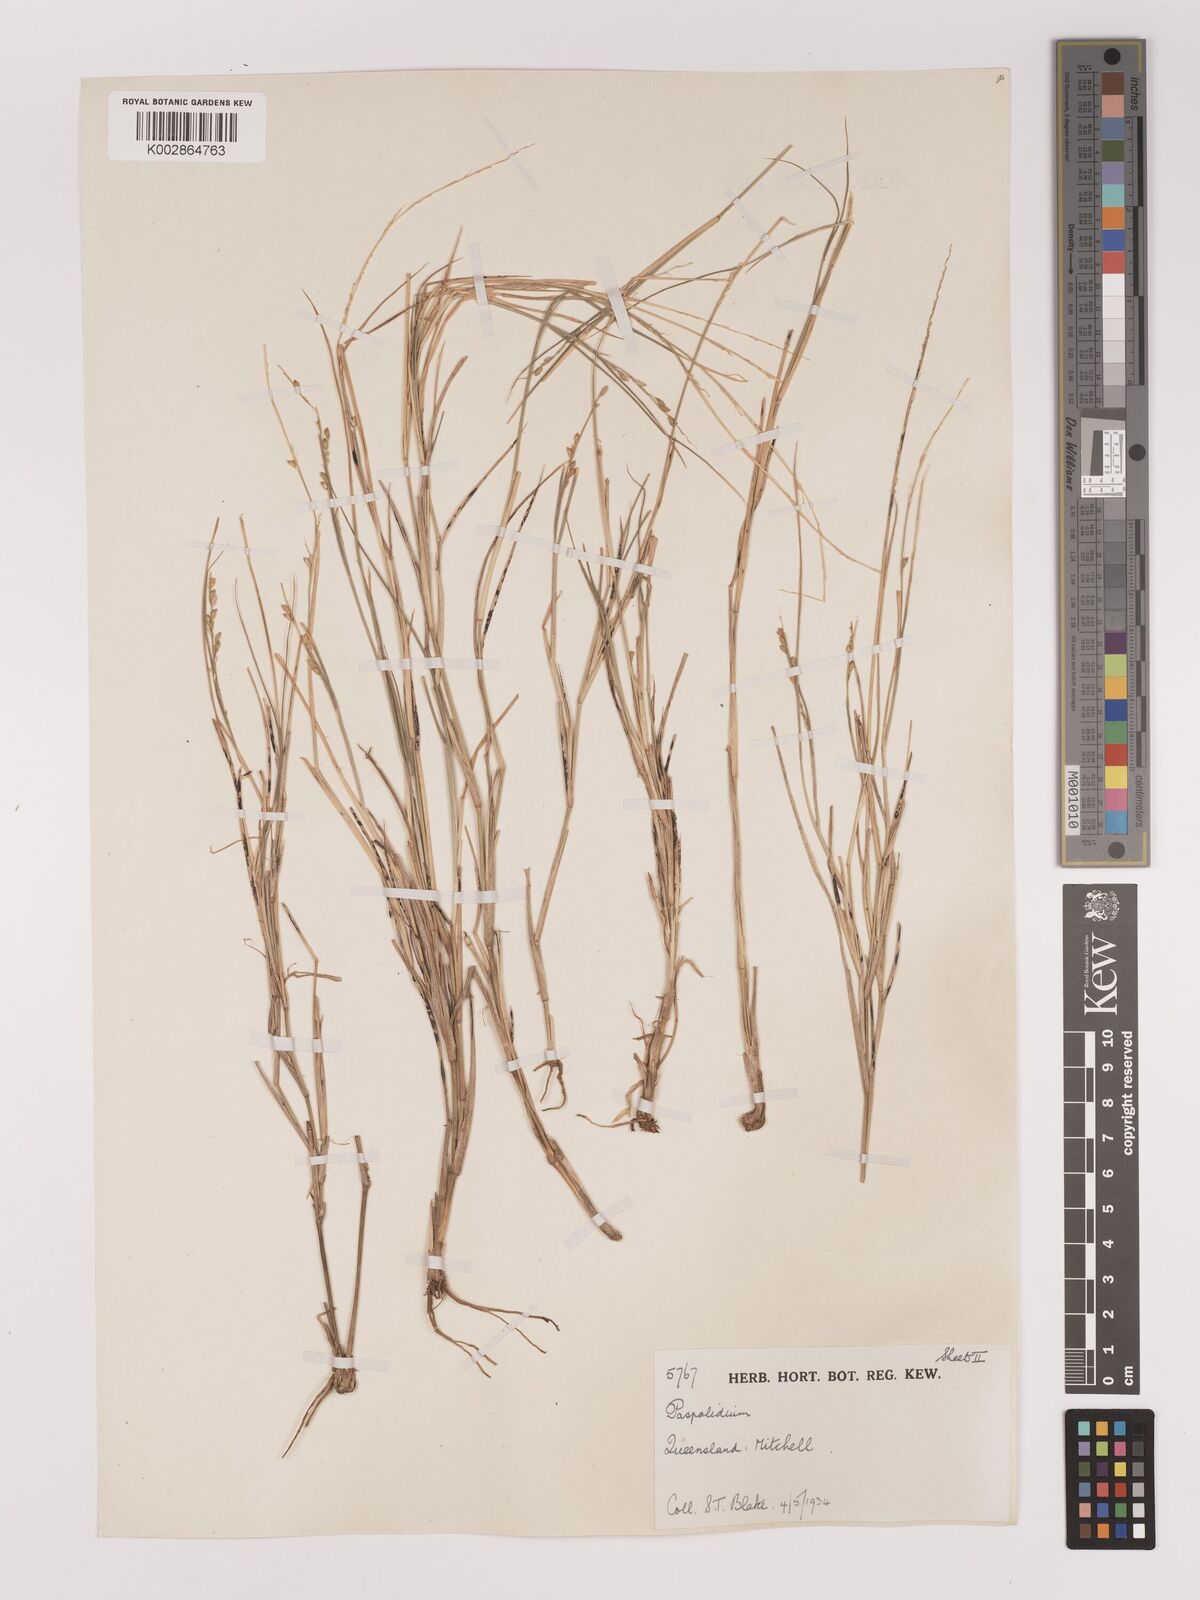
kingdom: Plantae
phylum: Tracheophyta
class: Liliopsida
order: Poales
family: Poaceae
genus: Setaria
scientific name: Setaria constricta
